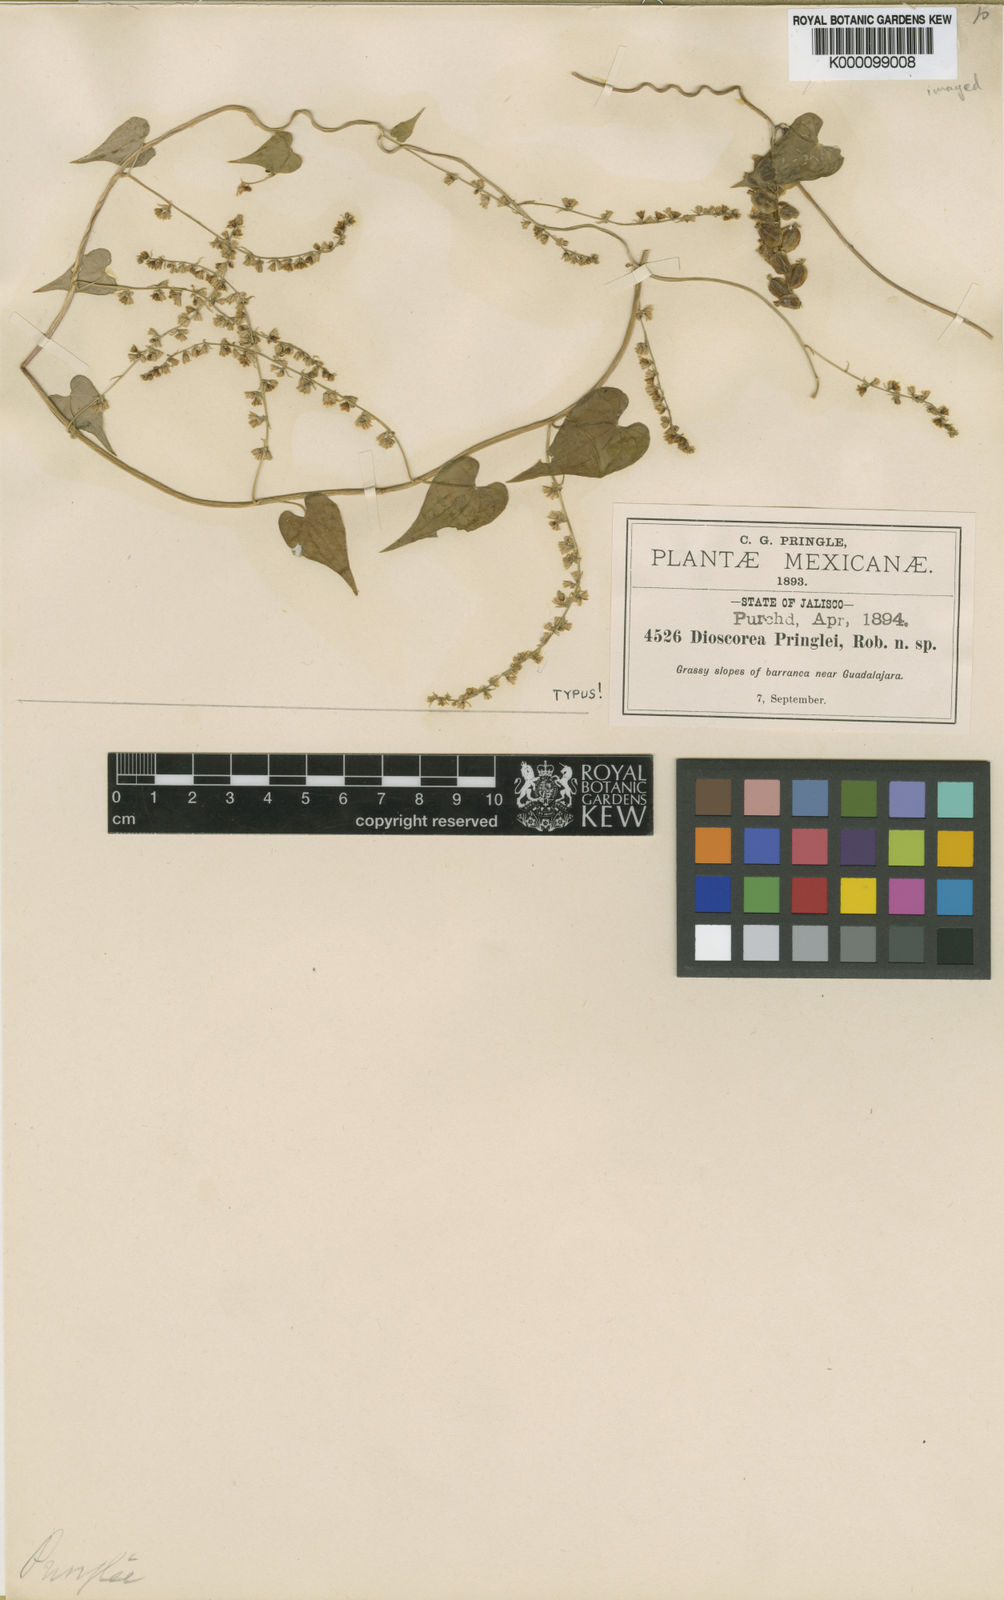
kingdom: Plantae
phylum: Tracheophyta
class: Liliopsida
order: Dioscoreales
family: Dioscoreaceae
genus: Dioscorea
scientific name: Dioscorea pringlei
